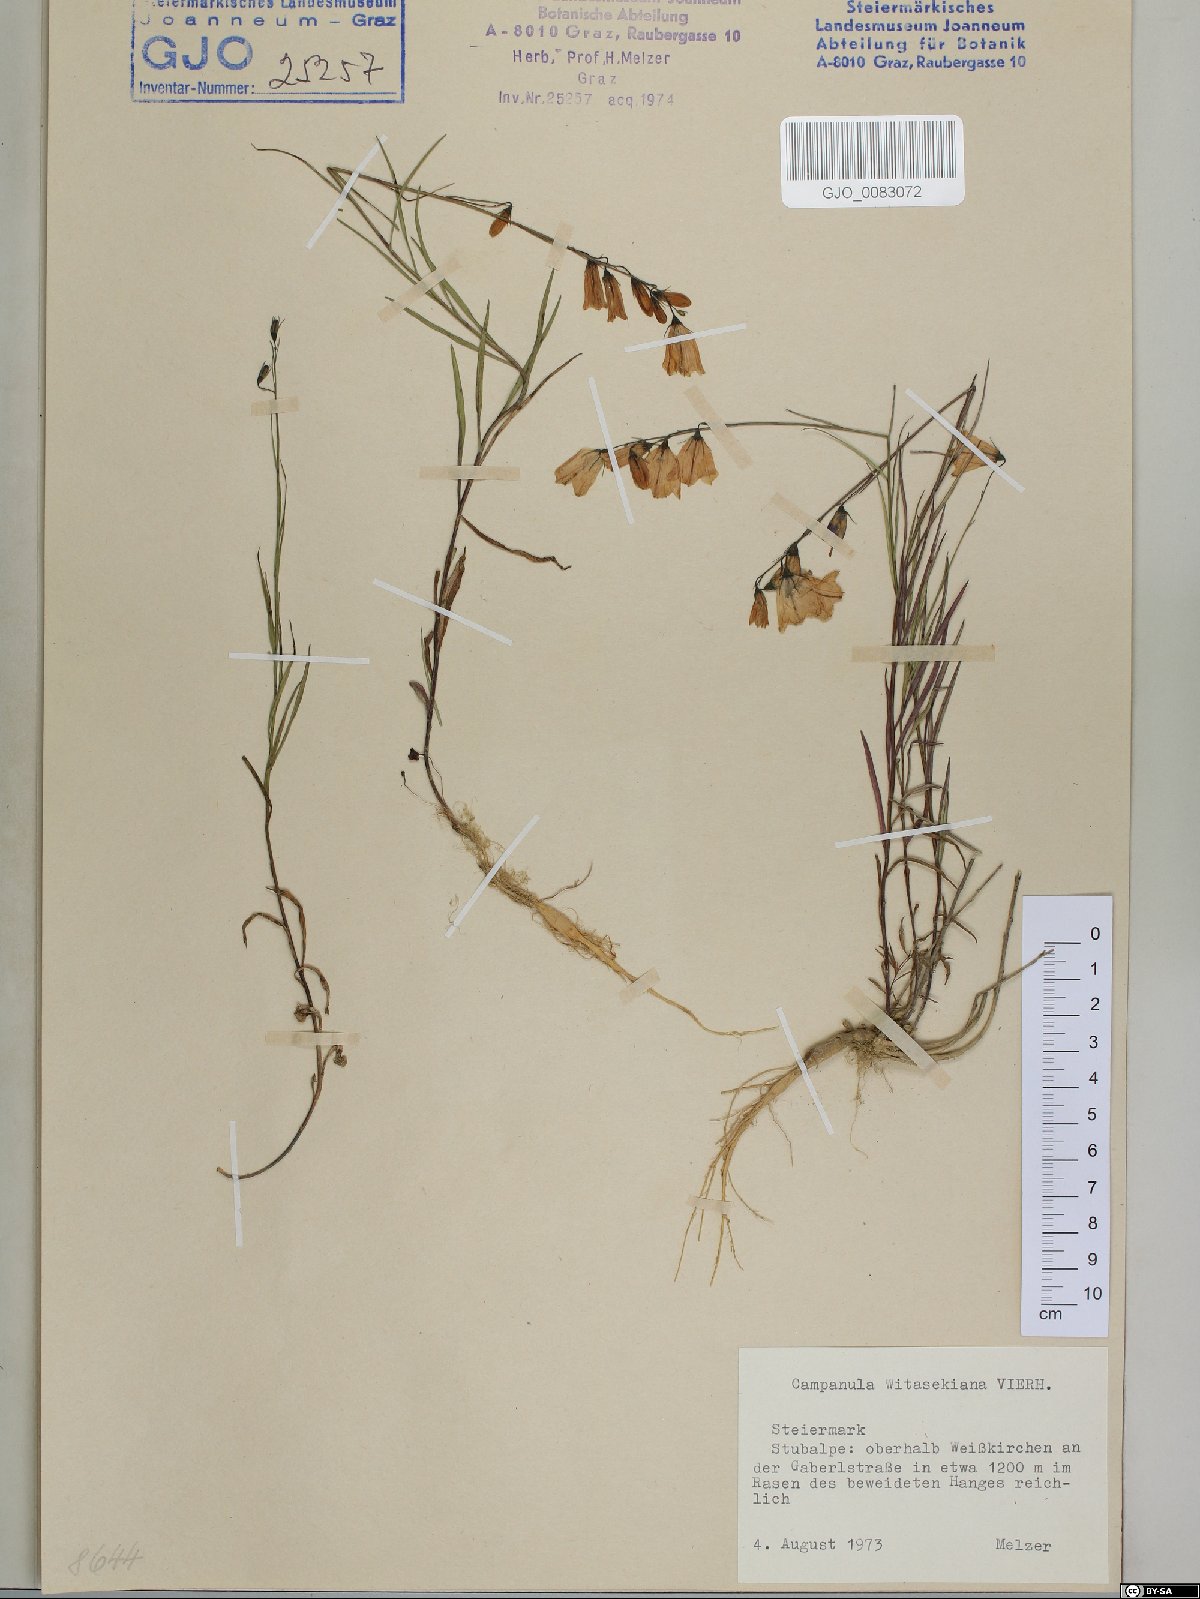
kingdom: Plantae
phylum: Tracheophyta
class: Magnoliopsida
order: Asterales
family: Campanulaceae
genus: Campanula
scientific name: Campanula witasekiana
